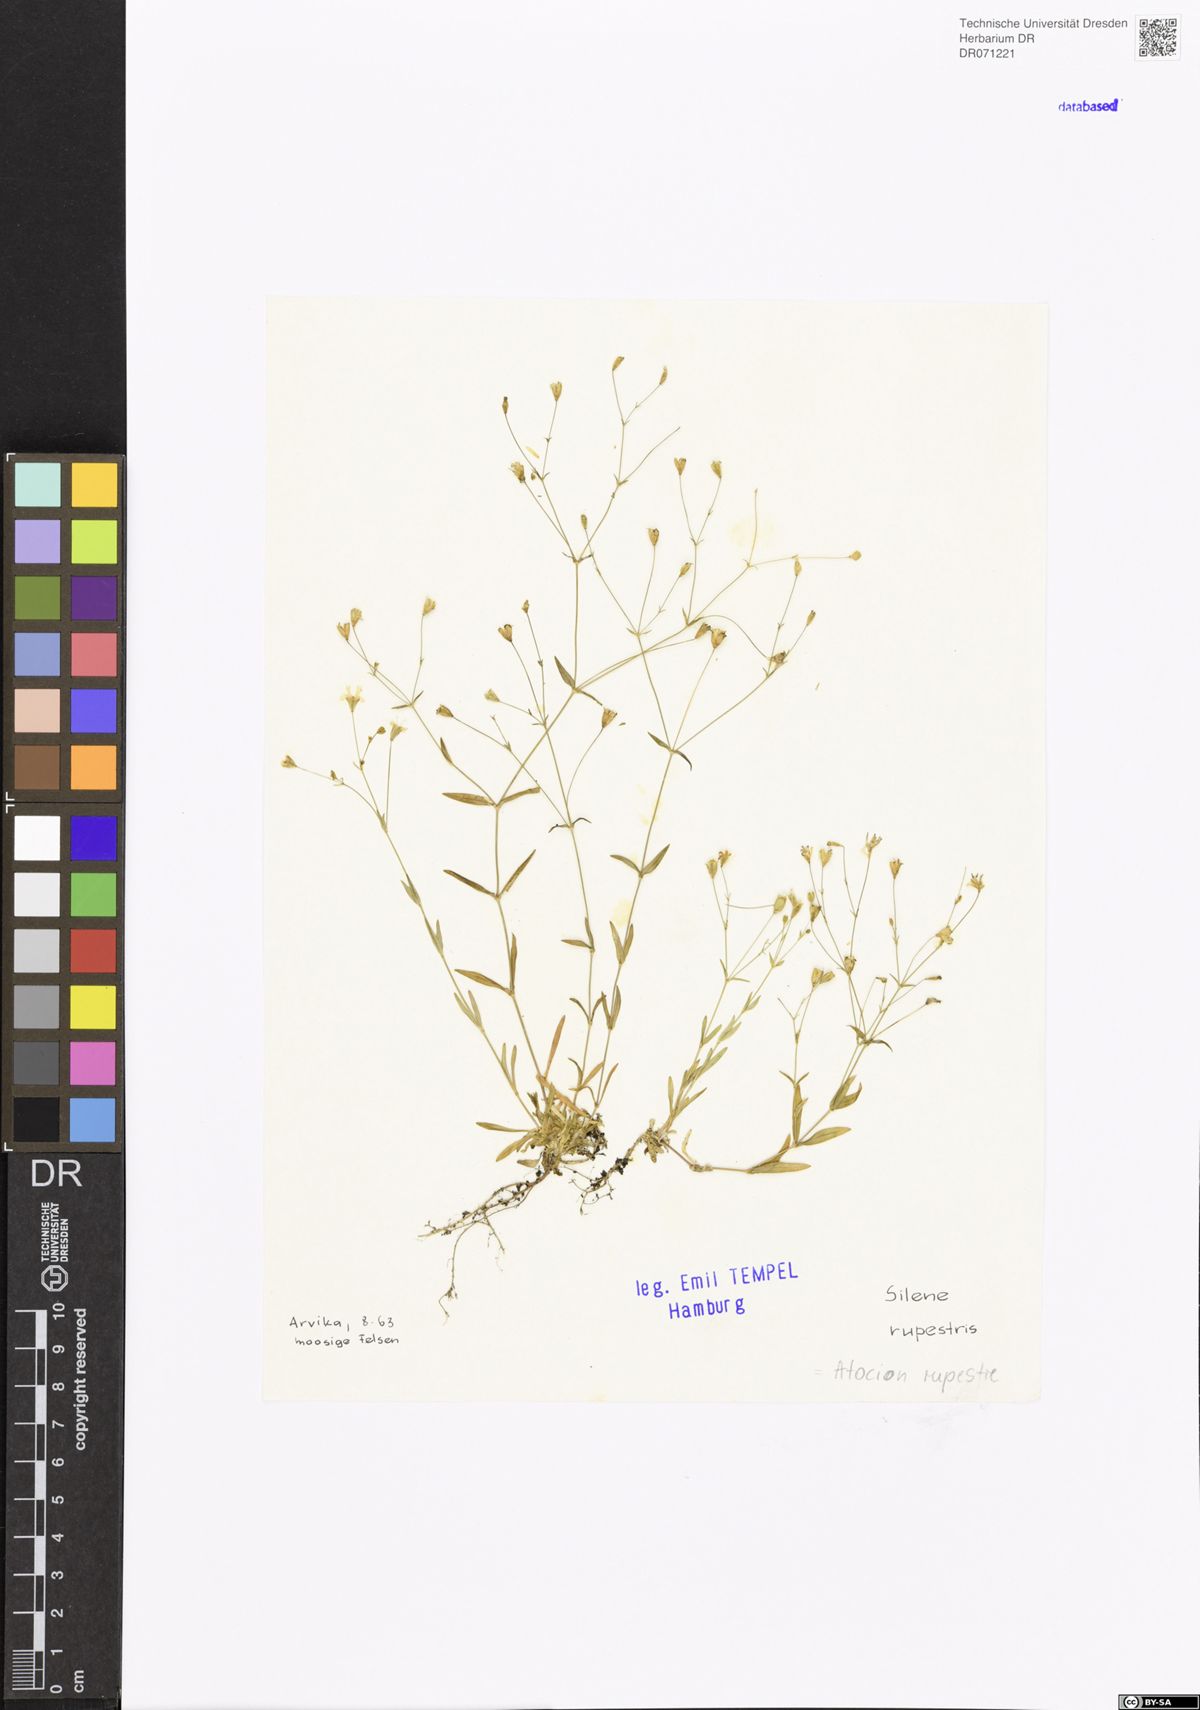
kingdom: Plantae
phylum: Tracheophyta
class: Magnoliopsida
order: Caryophyllales
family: Caryophyllaceae
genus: Atocion
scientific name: Atocion rupestre
